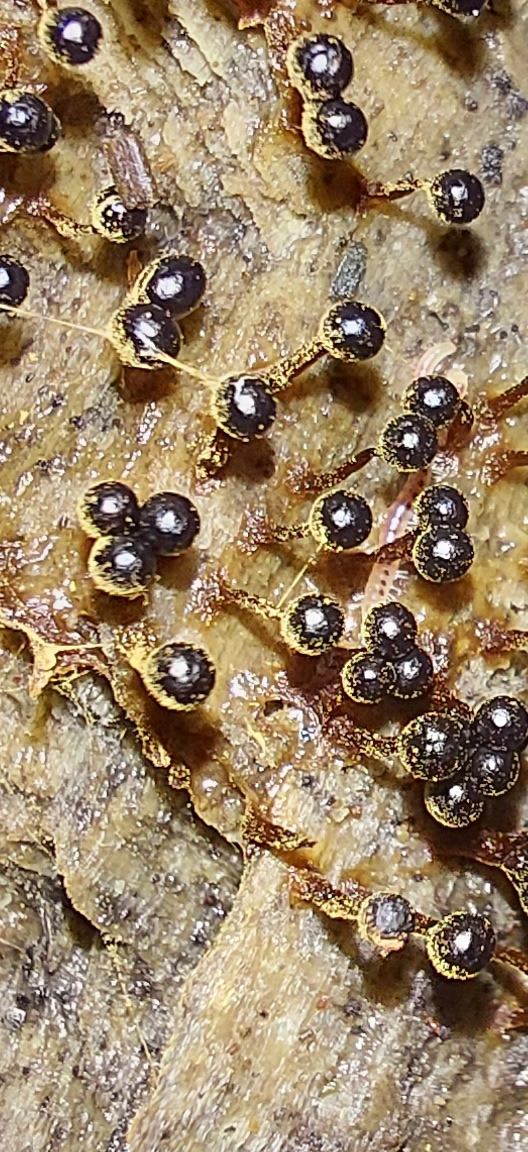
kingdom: Protozoa
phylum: Mycetozoa
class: Myxomycetes
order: Trichiales
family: Trichiaceae
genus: Metatrichia
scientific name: Metatrichia floriformis
